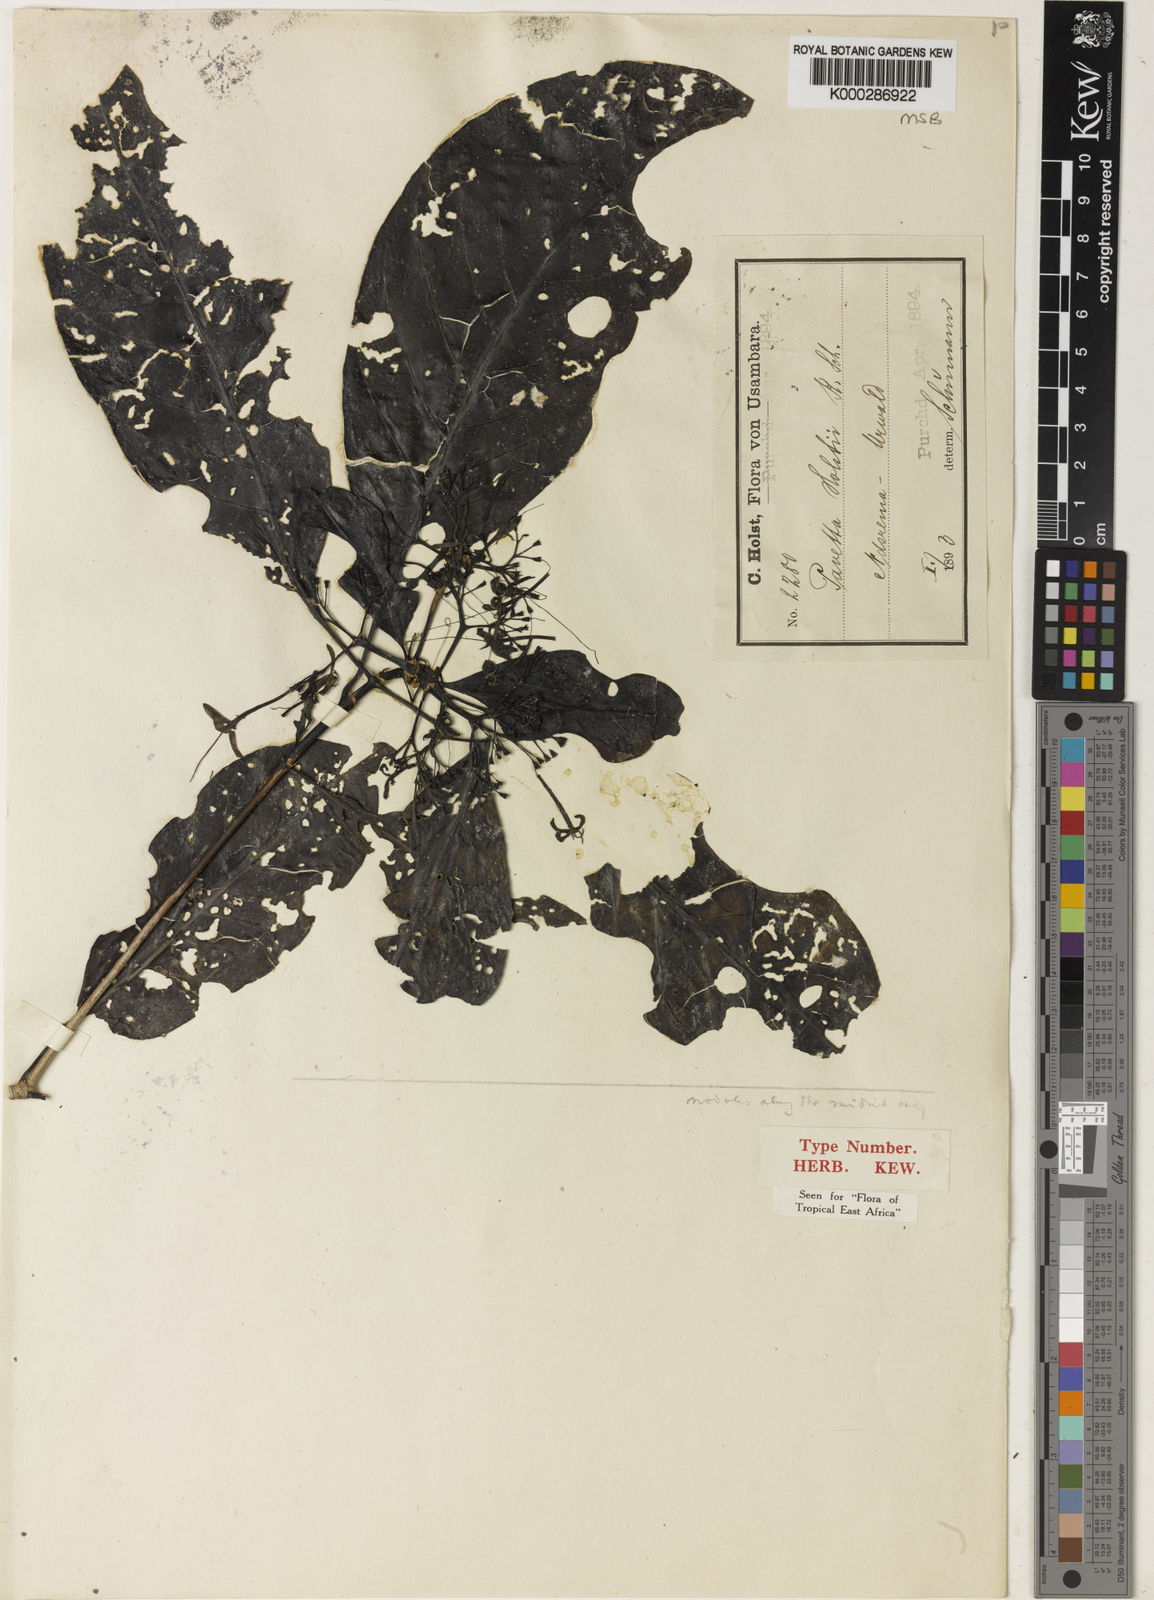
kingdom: Plantae
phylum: Tracheophyta
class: Magnoliopsida
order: Gentianales
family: Rubiaceae
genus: Pavetta
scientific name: Pavetta holstii
